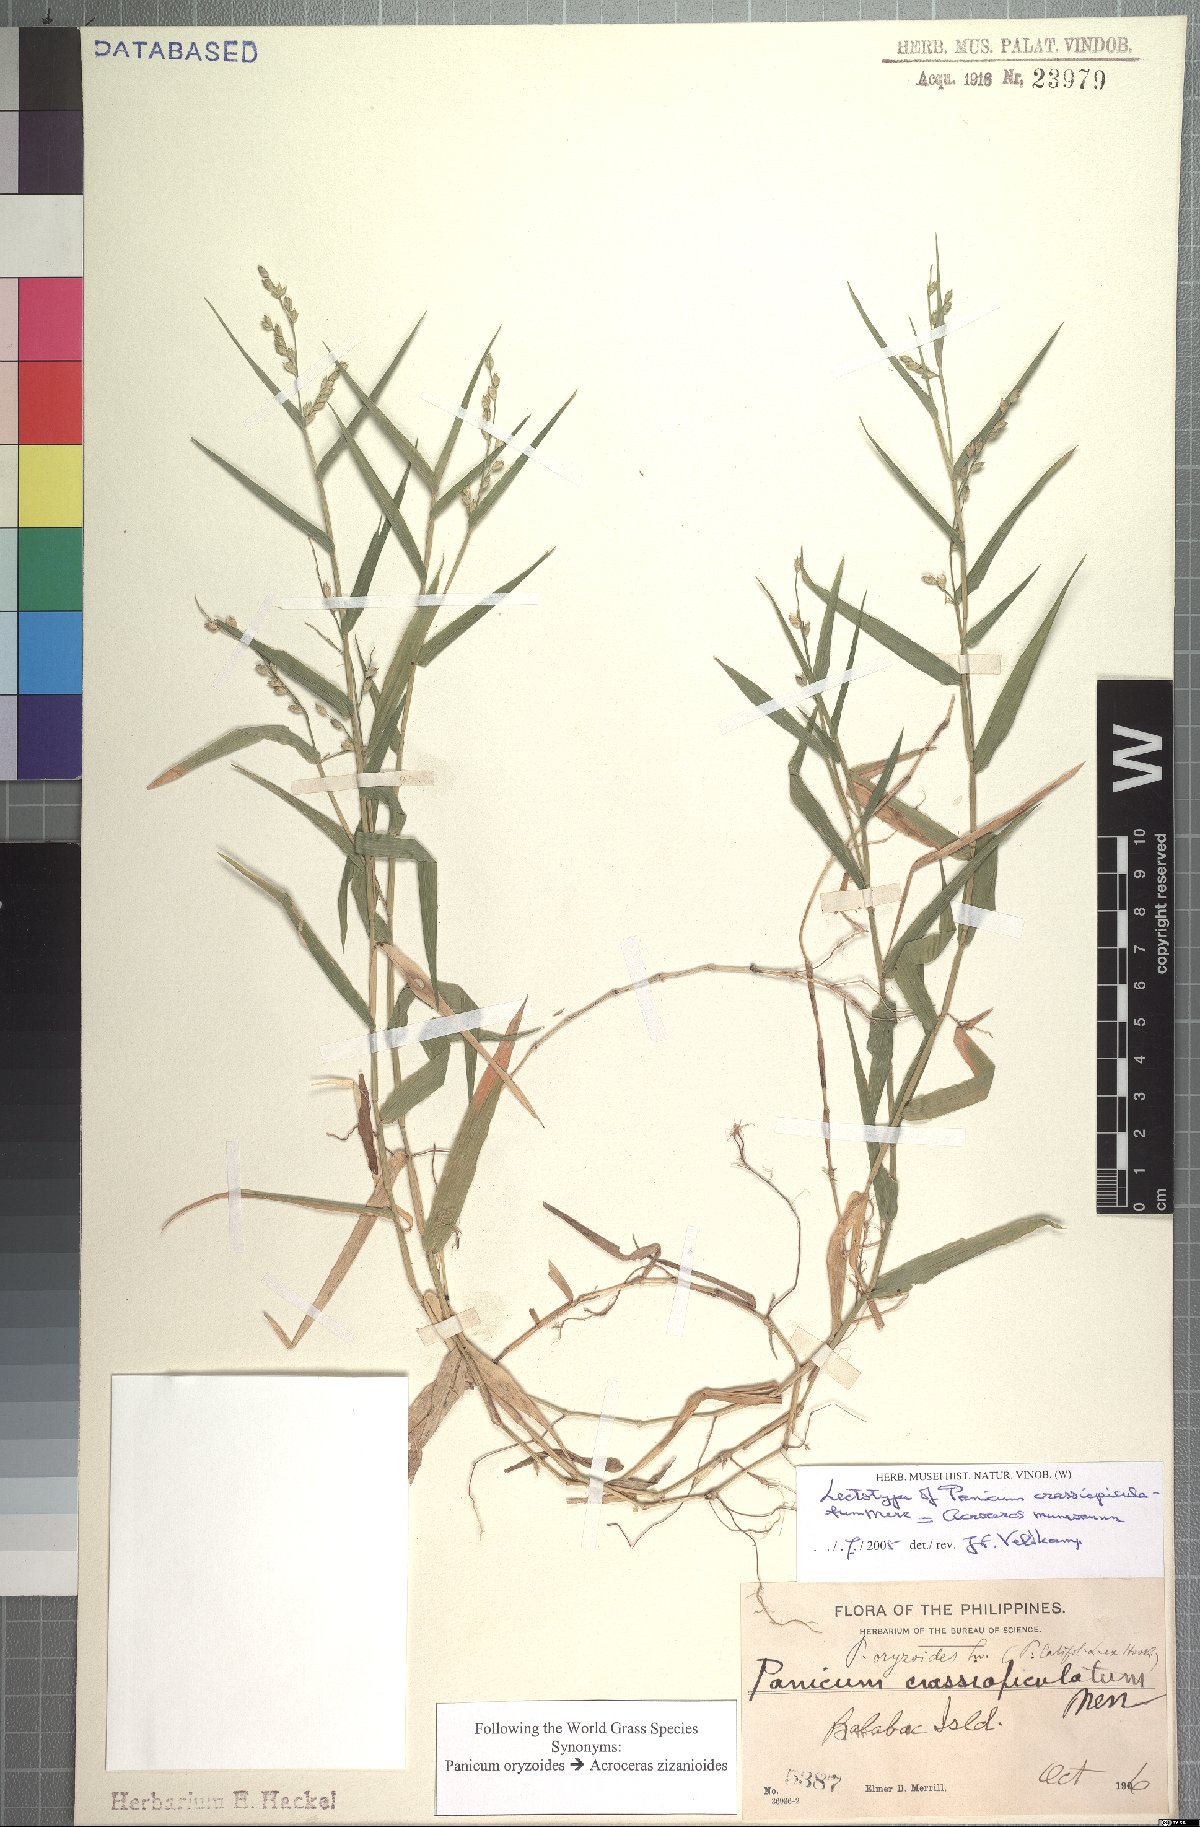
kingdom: Plantae
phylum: Tracheophyta
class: Liliopsida
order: Poales
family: Poaceae
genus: Acroceras
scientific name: Acroceras munroanum
